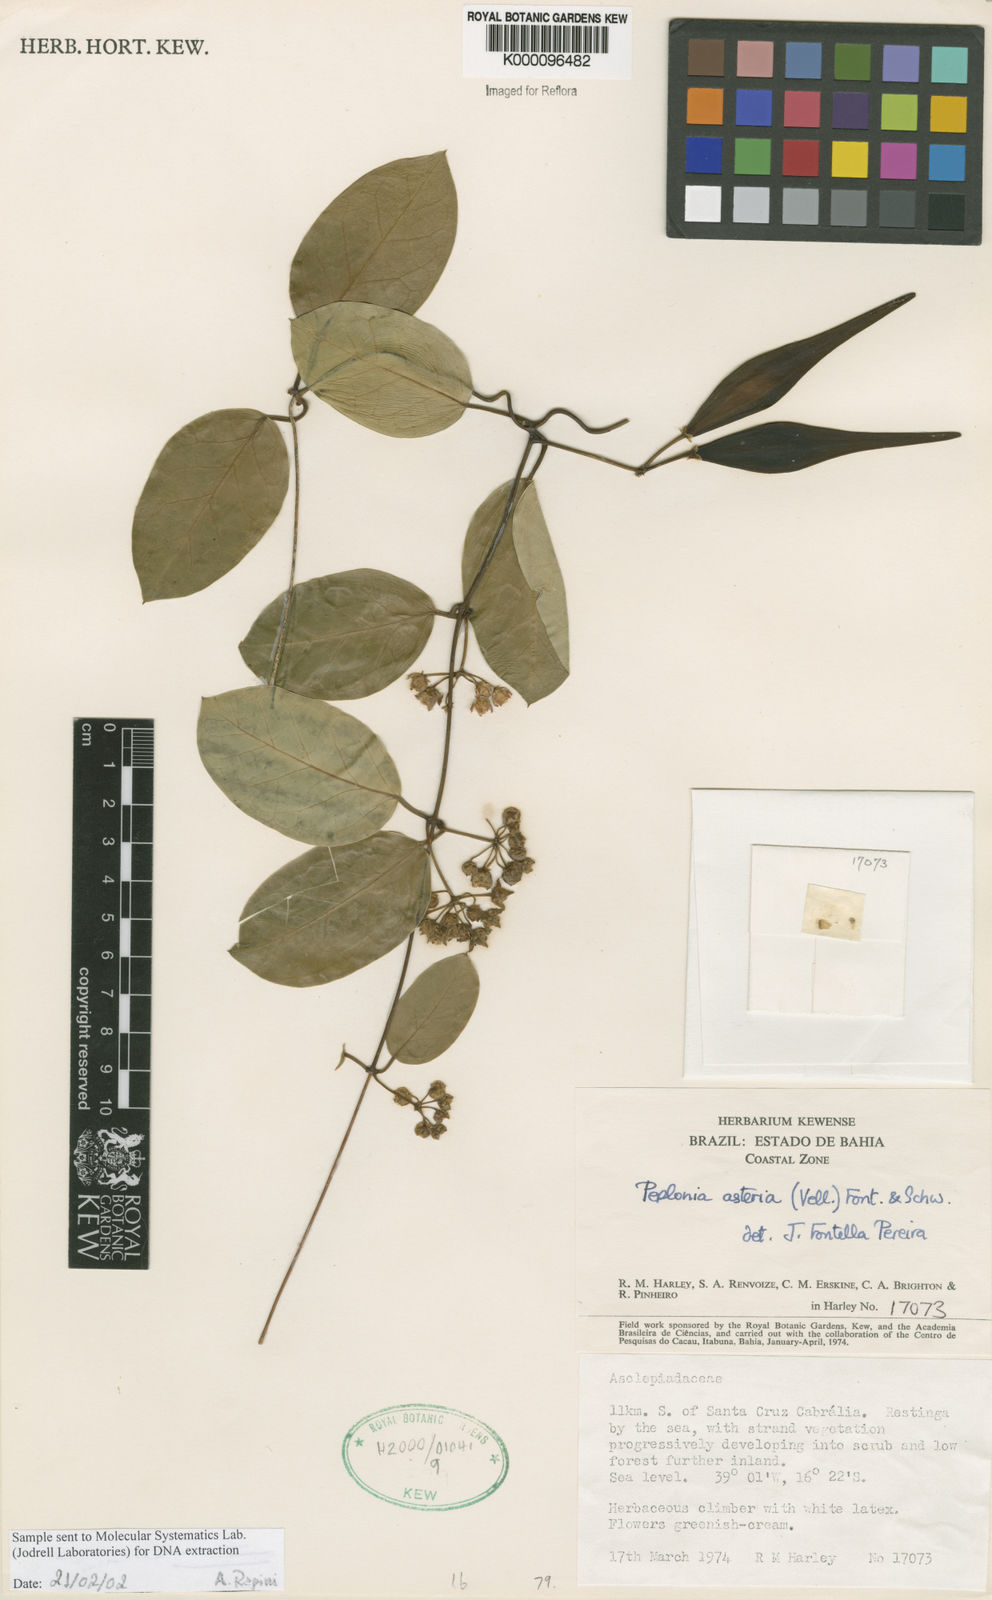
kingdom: Plantae
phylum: Tracheophyta
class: Magnoliopsida
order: Gentianales
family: Apocynaceae
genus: Peplonia
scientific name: Peplonia asteria
